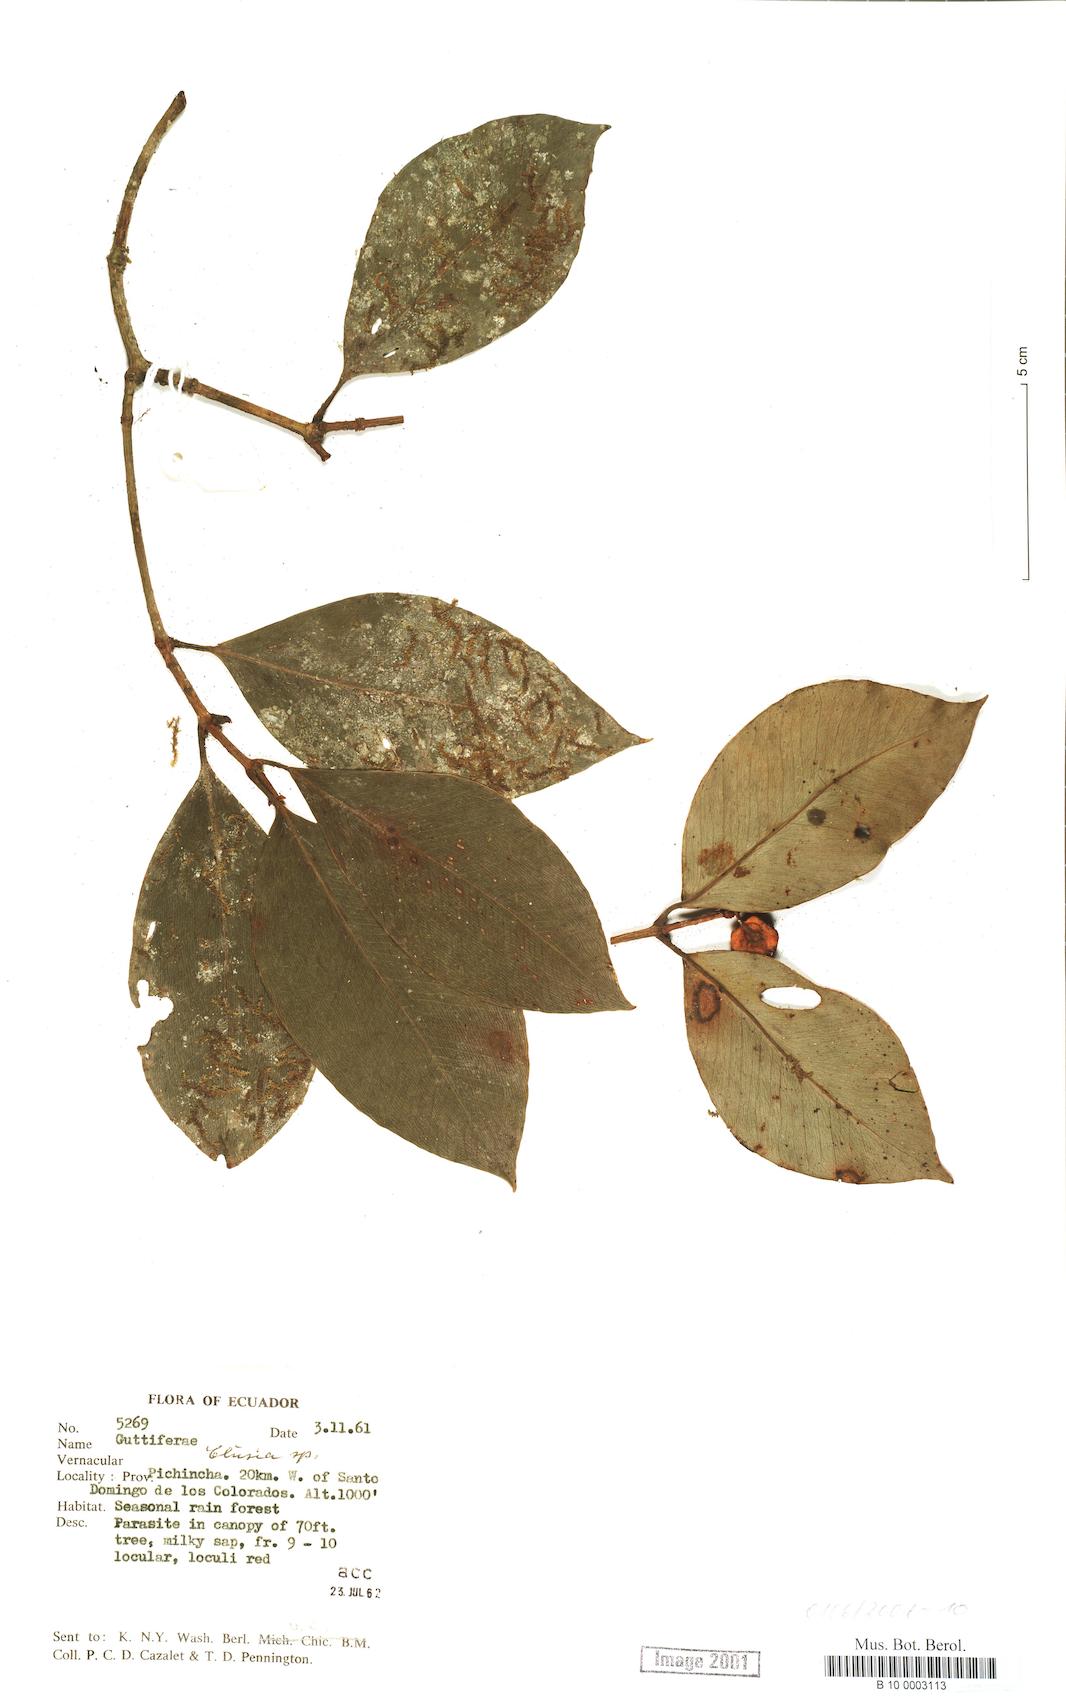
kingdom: Plantae
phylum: Tracheophyta
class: Magnoliopsida
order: Malpighiales
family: Clusiaceae
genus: Clusia
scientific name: Clusia
